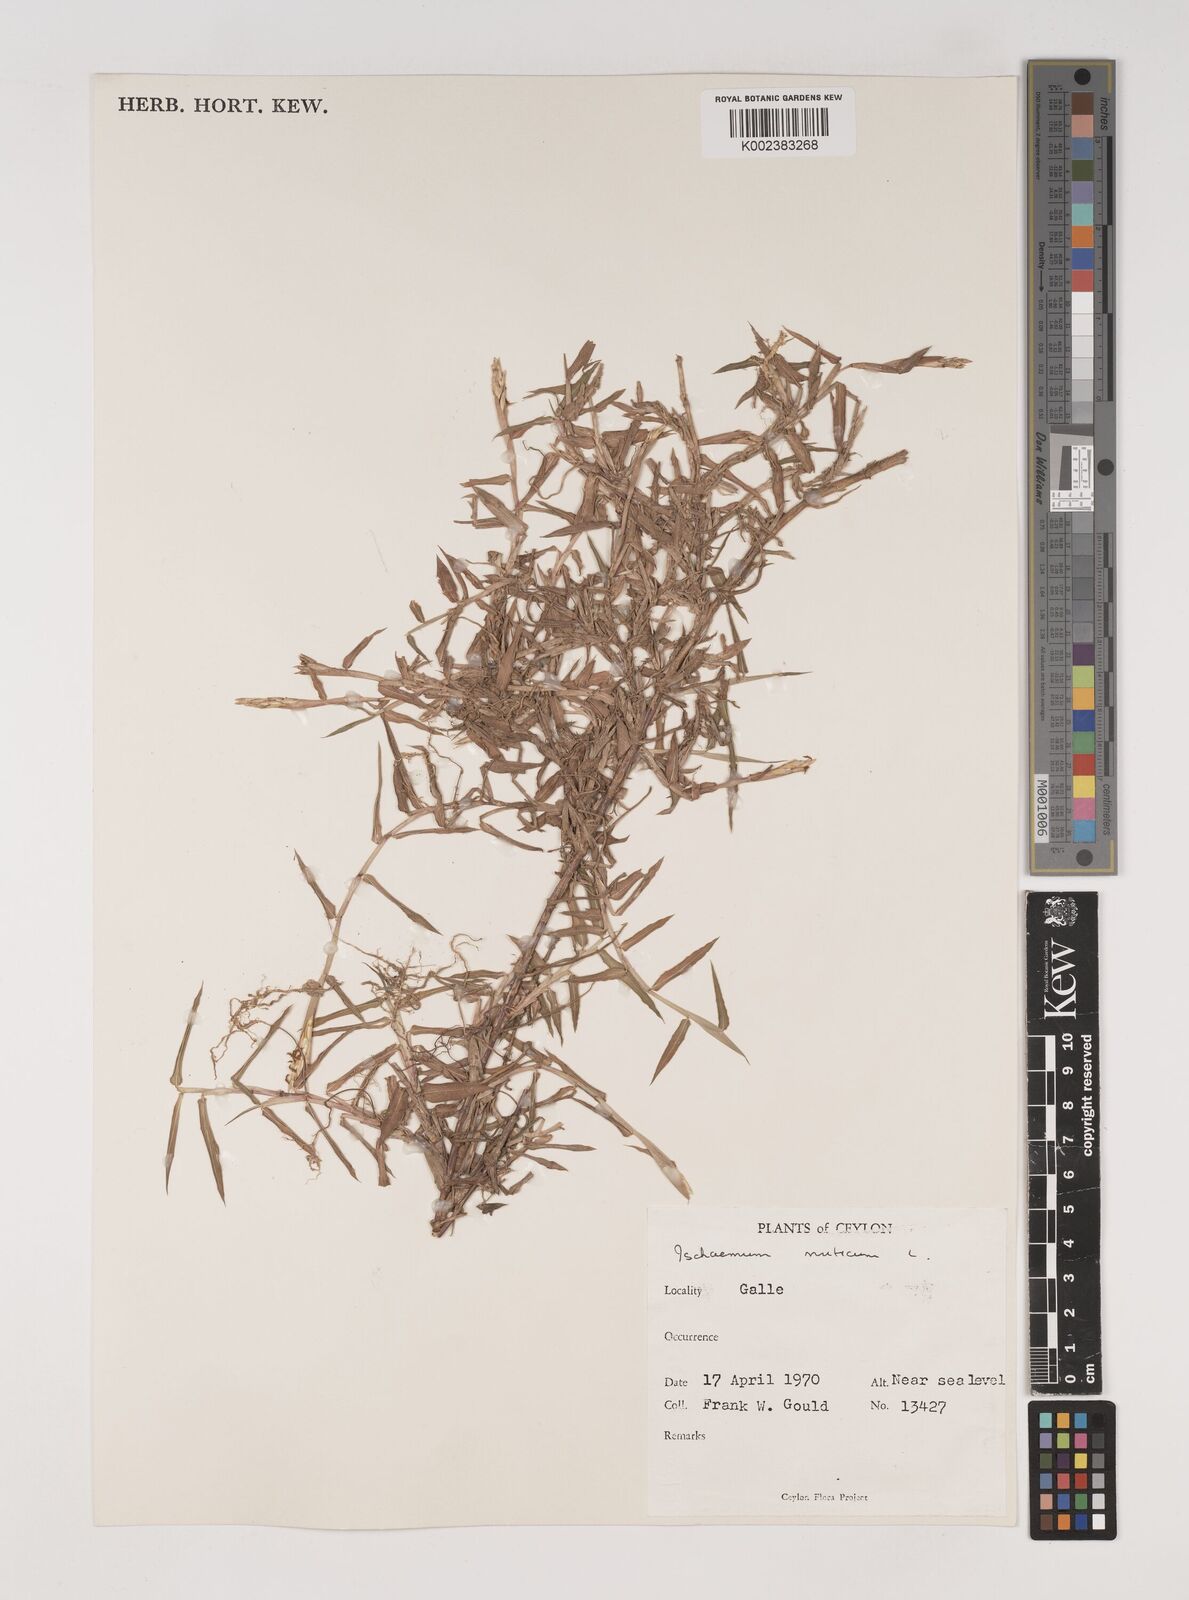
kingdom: Plantae
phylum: Tracheophyta
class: Liliopsida
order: Poales
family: Poaceae
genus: Ischaemum
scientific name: Ischaemum muticum
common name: Drought grass
